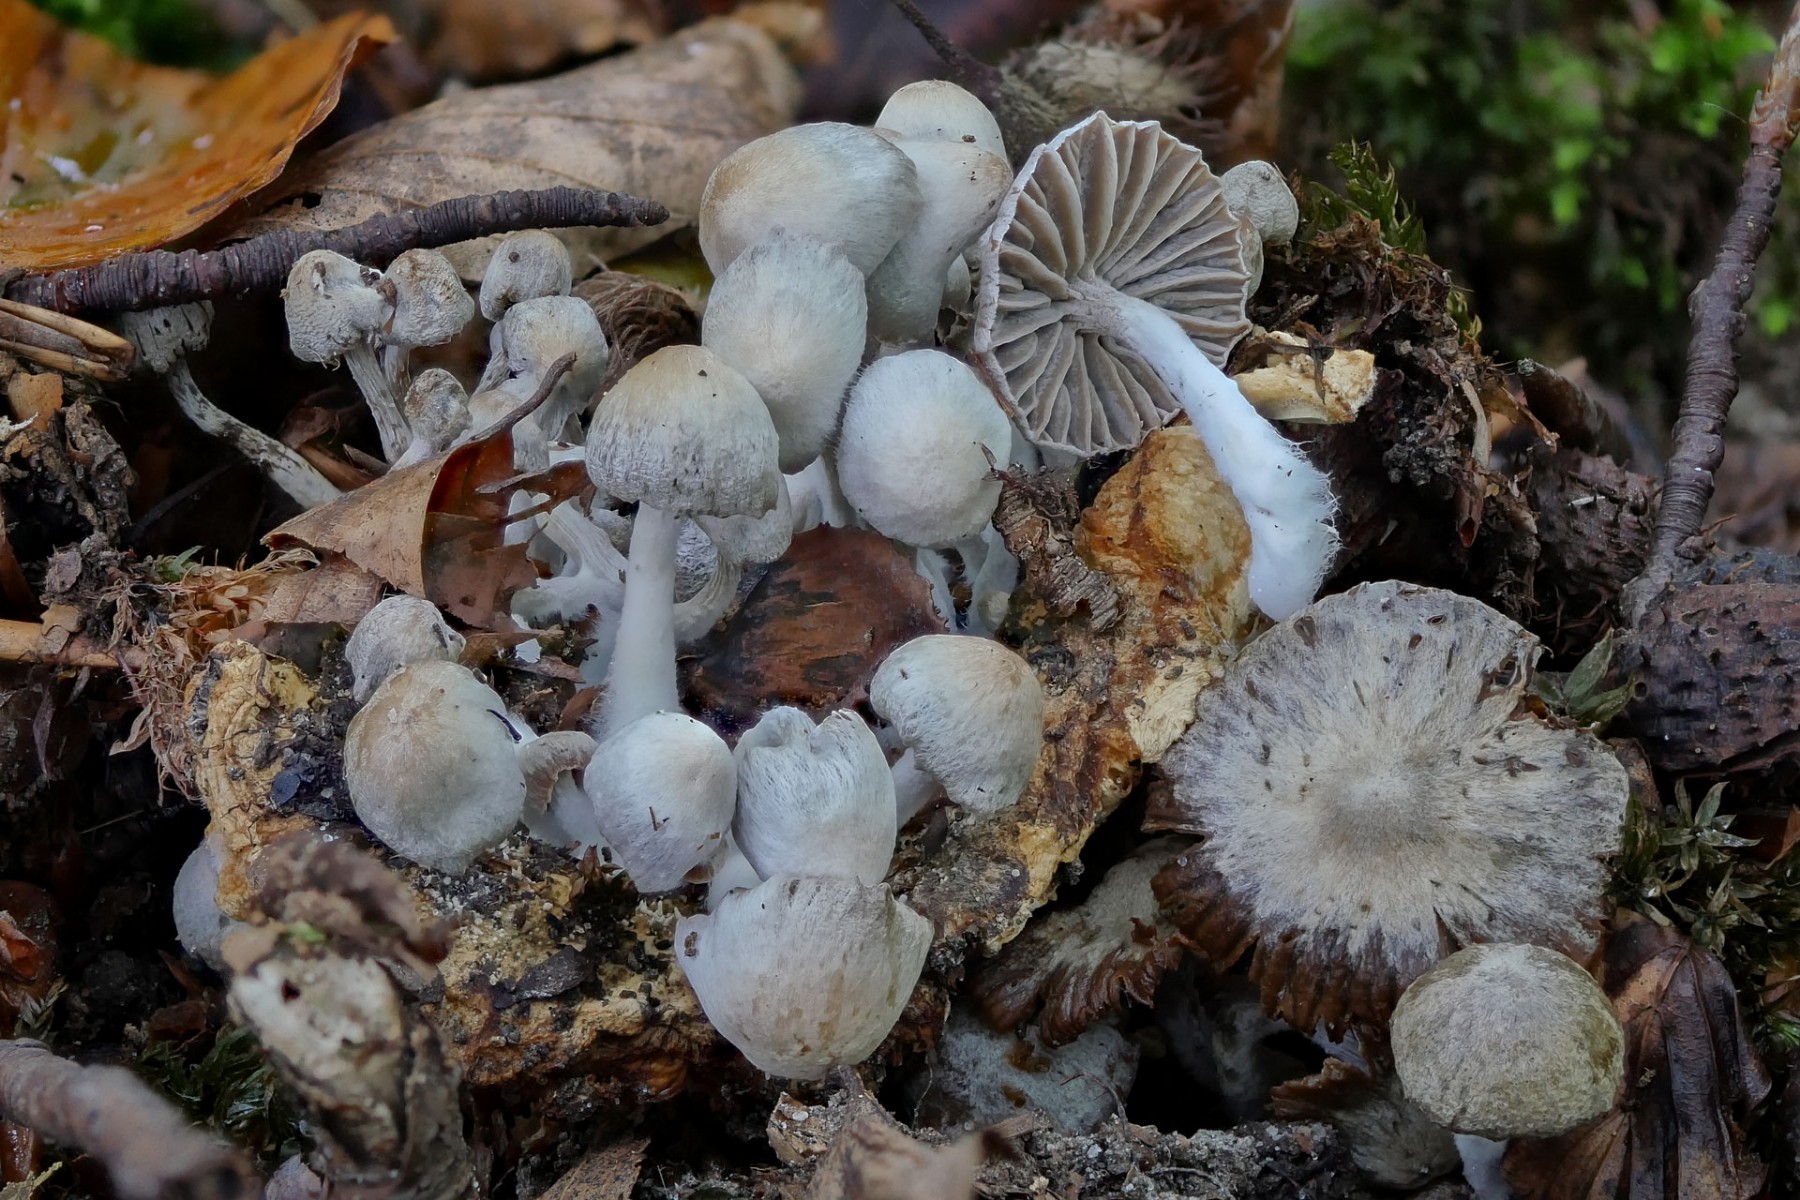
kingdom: Fungi
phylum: Basidiomycota
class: Agaricomycetes
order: Agaricales
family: Lyophyllaceae
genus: Asterophora
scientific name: Asterophora parasitica
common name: grå snyltehat
